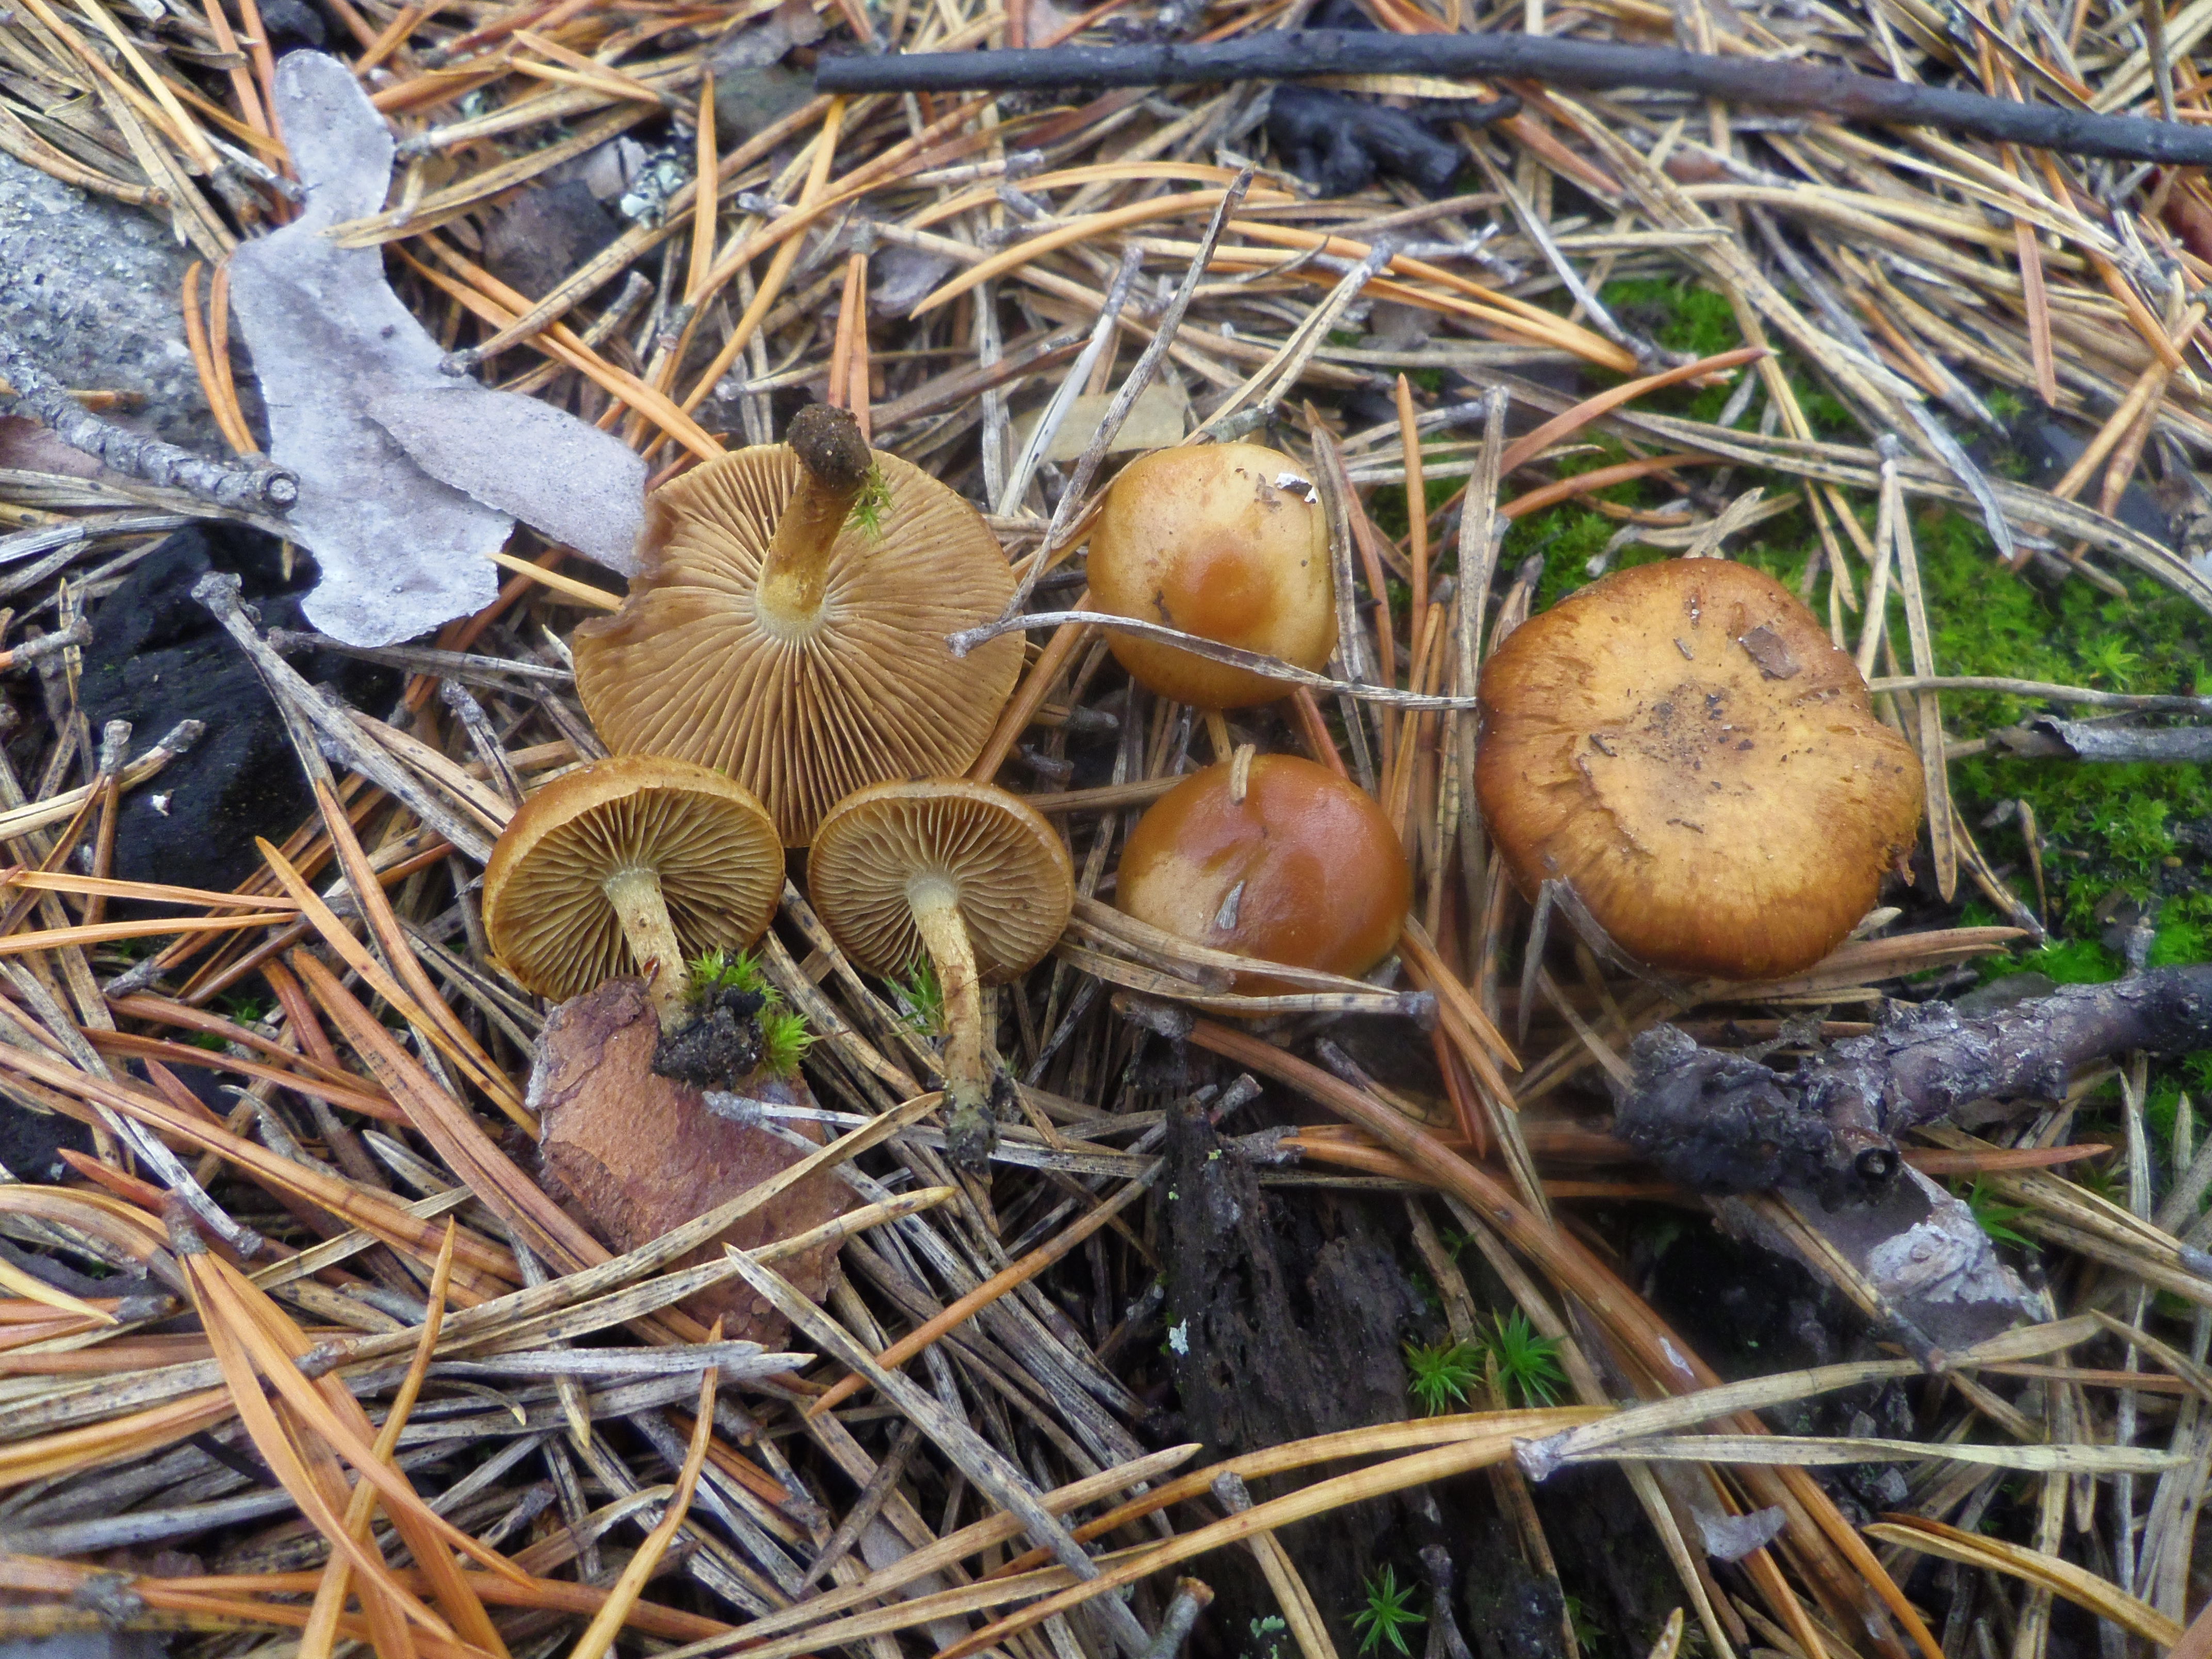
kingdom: Fungi
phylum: Basidiomycota
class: Agaricomycetes
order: Agaricales
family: Strophariaceae
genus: Pholiota
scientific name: Pholiota carbonaria
